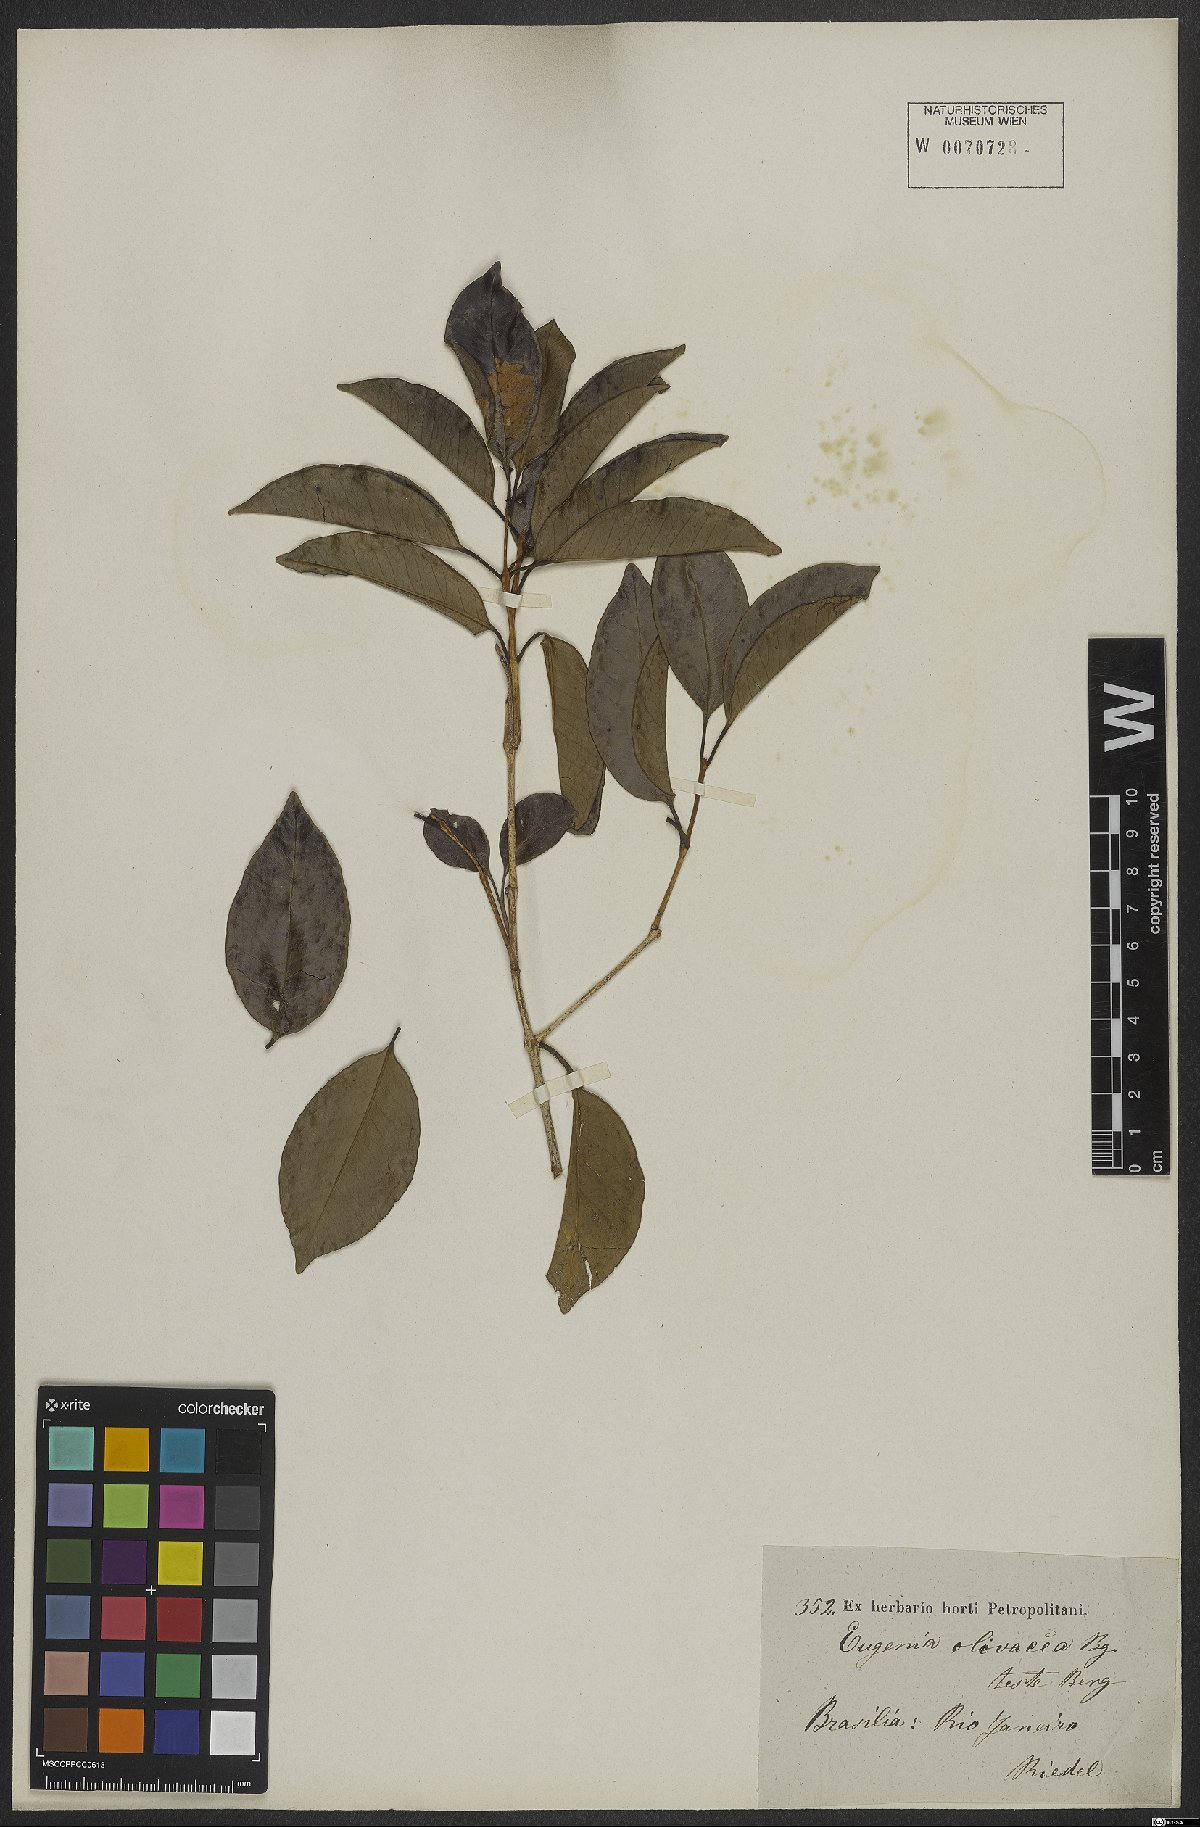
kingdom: Plantae
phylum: Tracheophyta
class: Magnoliopsida
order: Myrtales
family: Myrtaceae
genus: Eugenia
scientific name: Eugenia pruniformis
